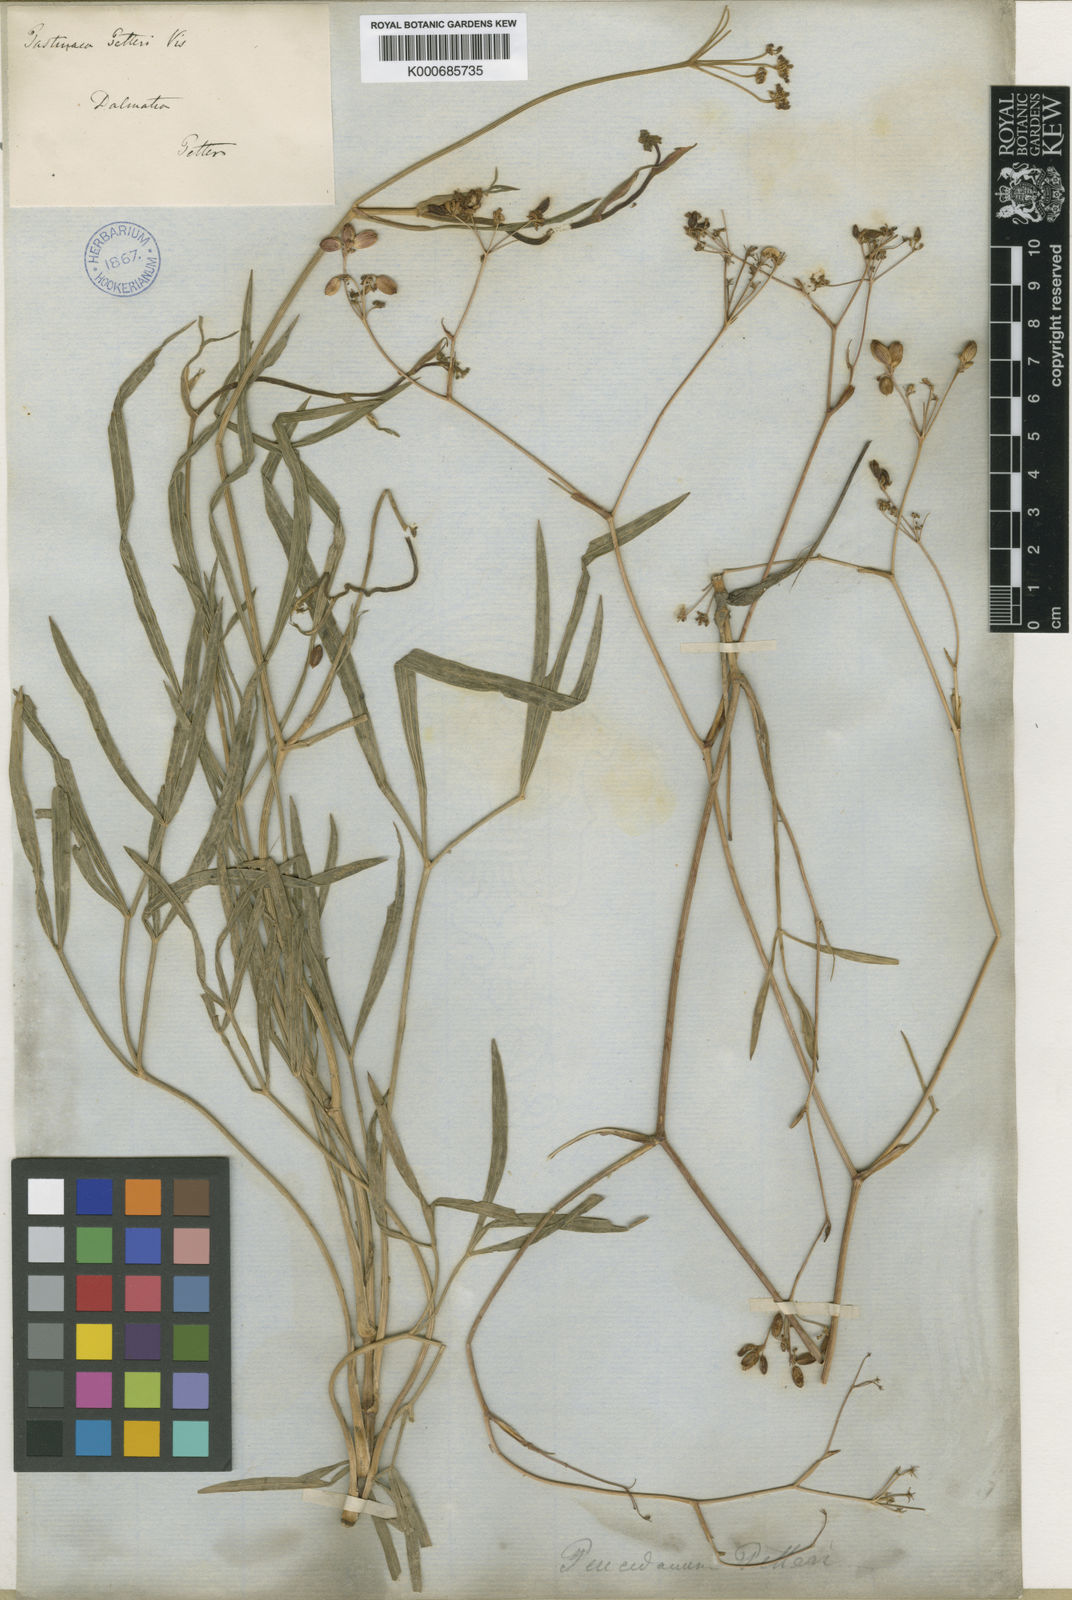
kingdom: Plantae
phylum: Tracheophyta
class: Magnoliopsida
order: Apiales
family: Apiaceae
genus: Peucedanum
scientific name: Peucedanum coriaceum
